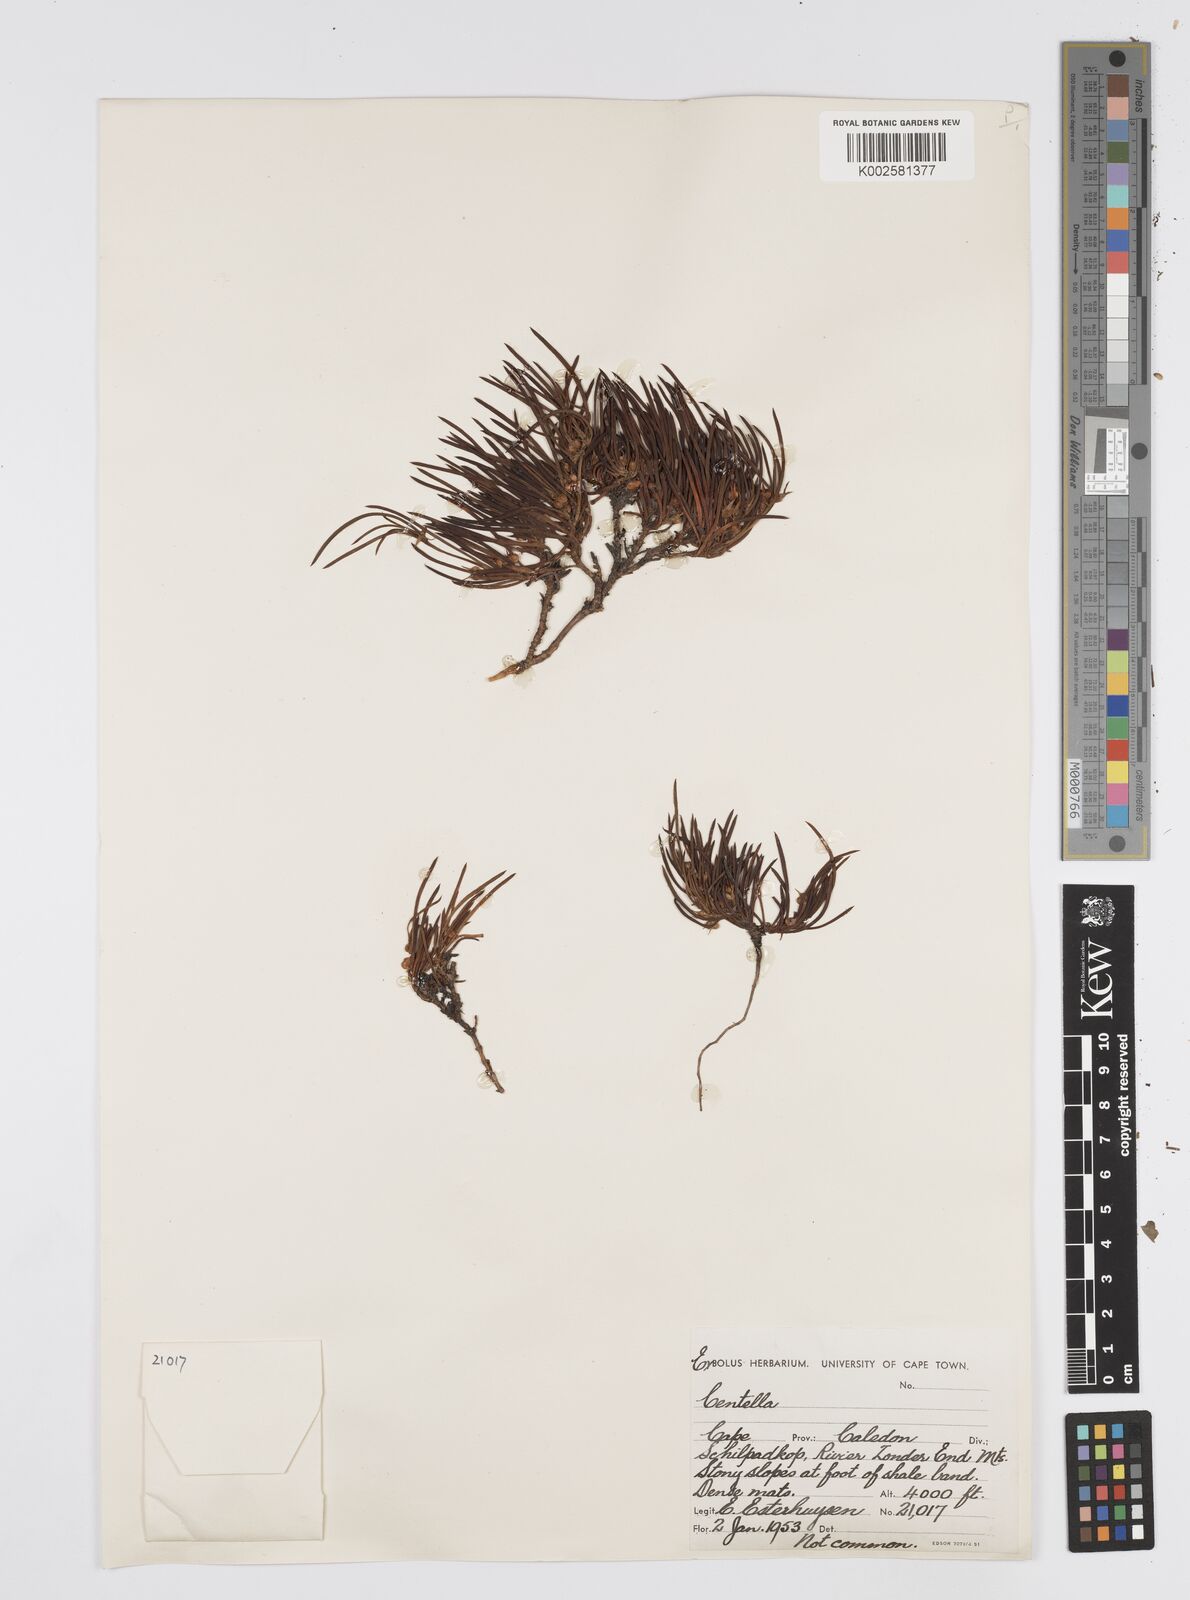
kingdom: Plantae
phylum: Tracheophyta
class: Magnoliopsida
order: Apiales
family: Apiaceae
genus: Centella
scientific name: Centella
